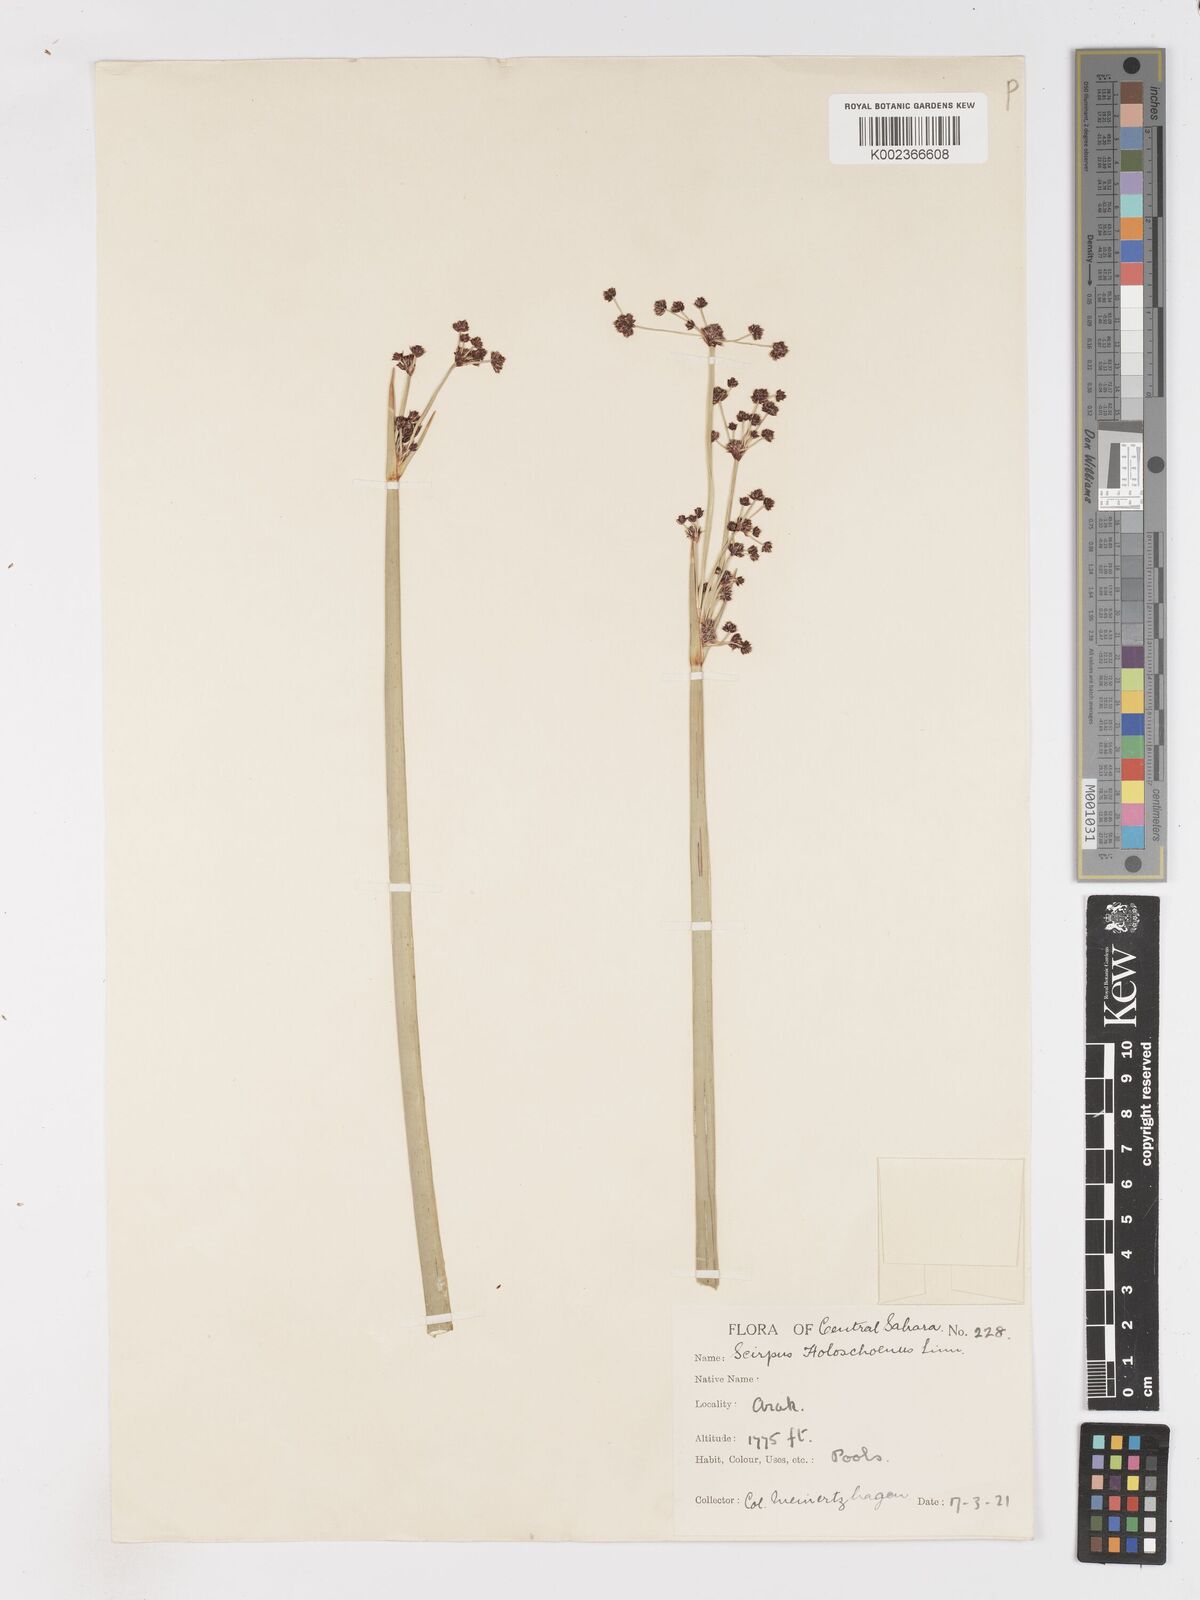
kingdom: Plantae
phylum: Tracheophyta
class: Liliopsida
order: Poales
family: Cyperaceae
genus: Scirpoides
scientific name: Scirpoides holoschoenus
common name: Round-headed club-rush
